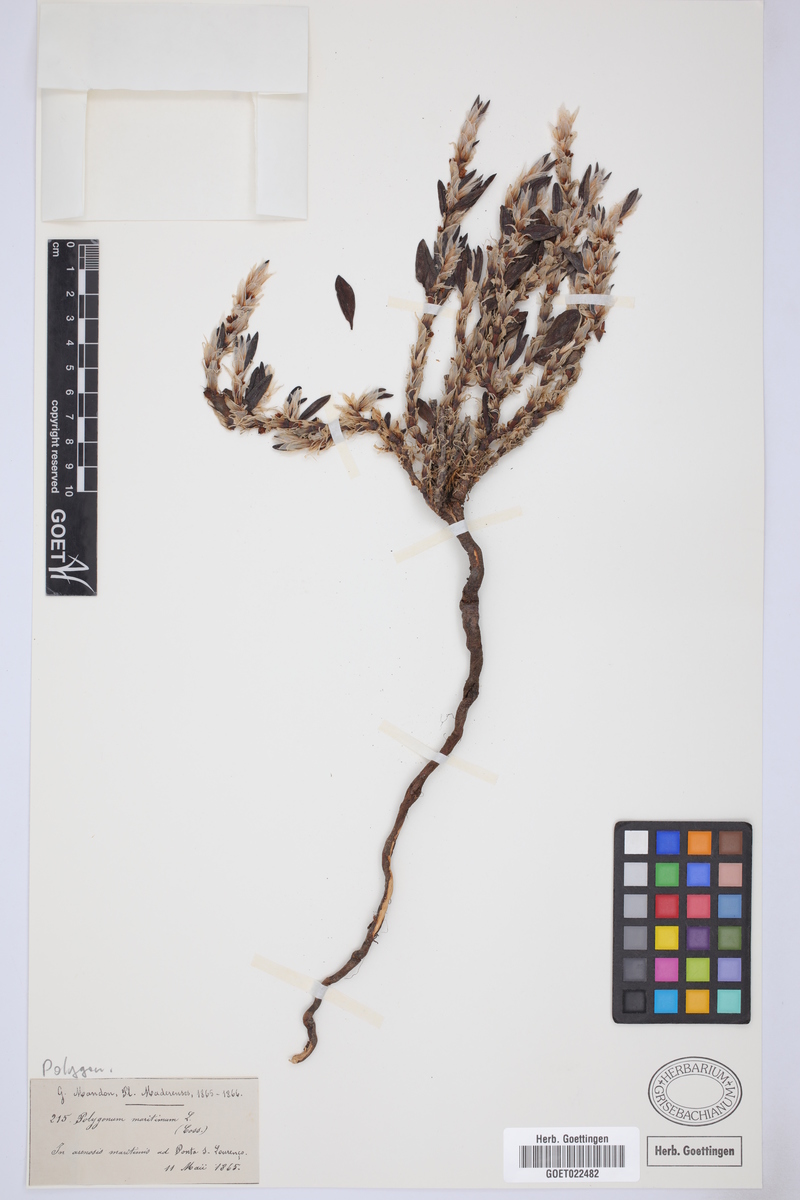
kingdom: Plantae
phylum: Tracheophyta
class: Magnoliopsida
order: Caryophyllales
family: Polygonaceae
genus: Polygonum
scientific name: Polygonum maritimum
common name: Sea knotgrass
